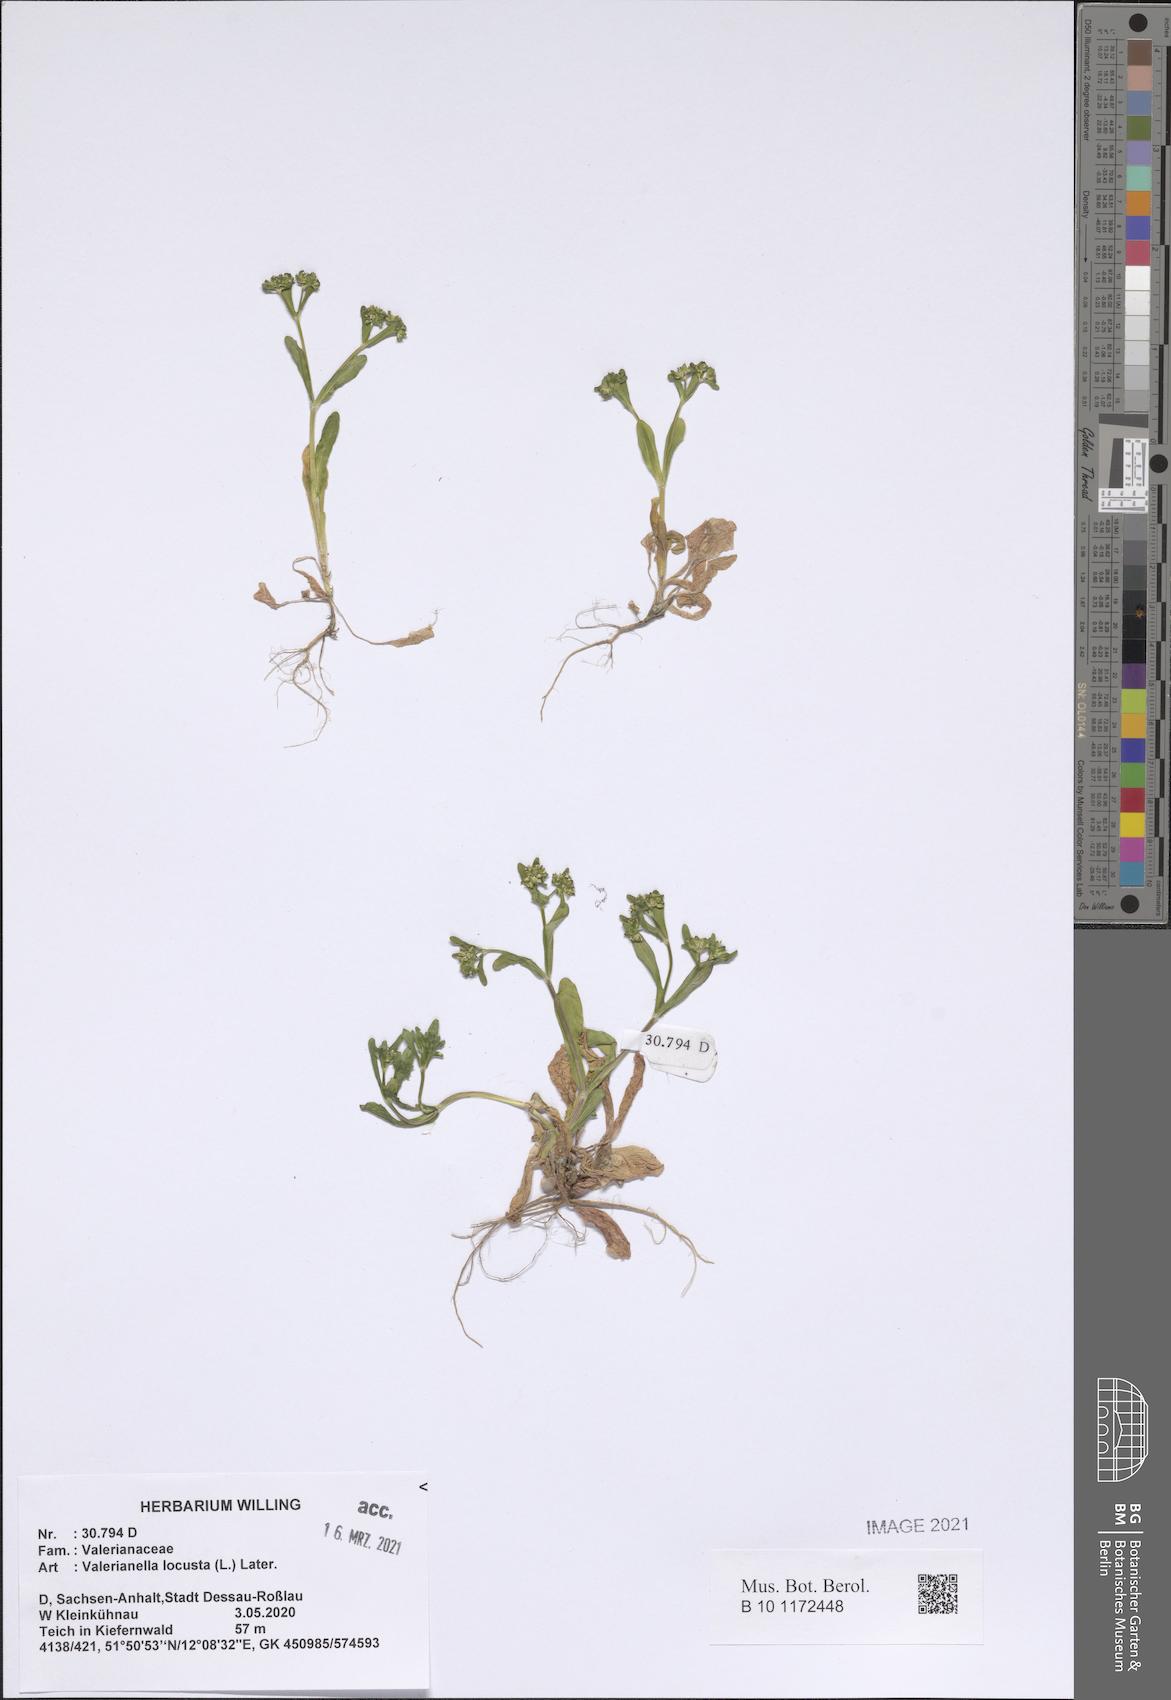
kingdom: Plantae
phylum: Tracheophyta
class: Magnoliopsida
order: Dipsacales
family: Caprifoliaceae
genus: Valerianella
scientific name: Valerianella locusta
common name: Common cornsalad
